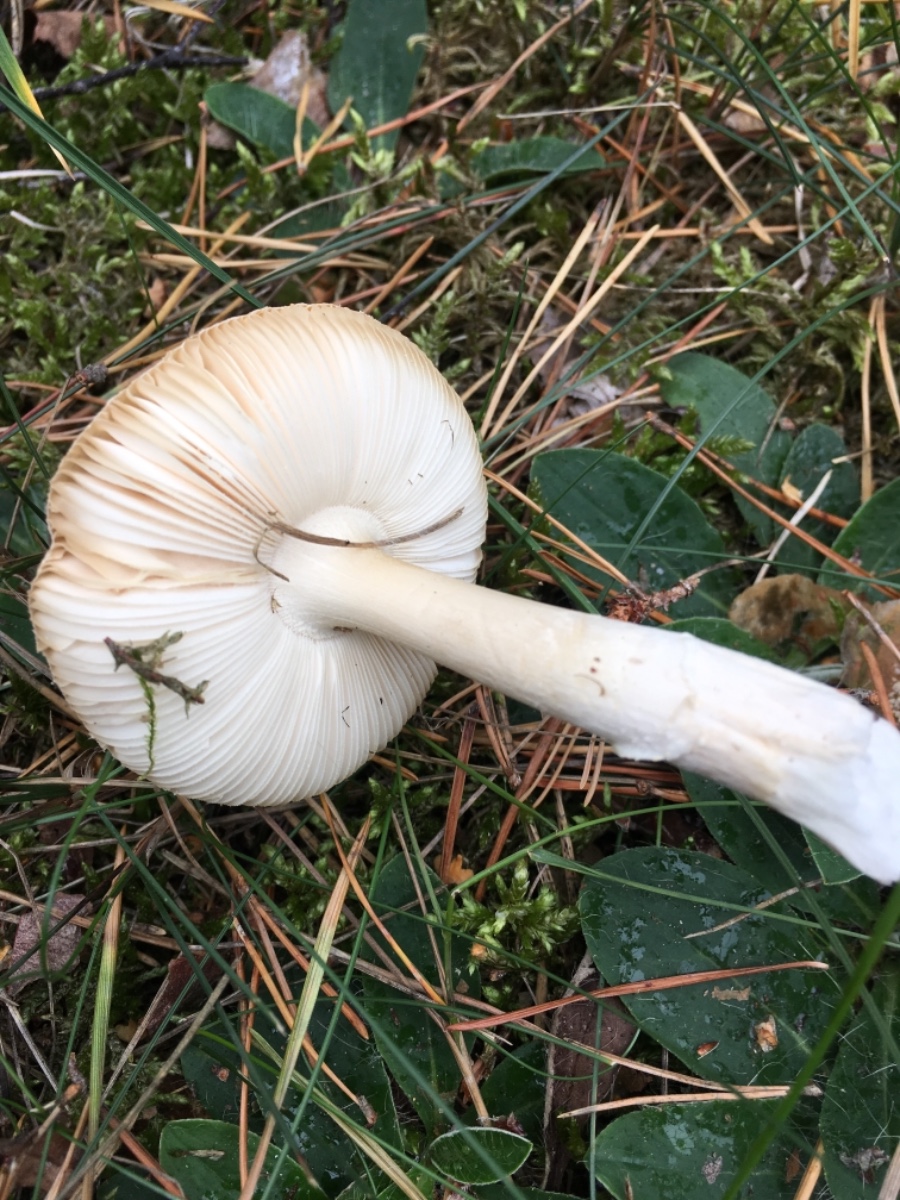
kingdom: Fungi
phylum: Basidiomycota
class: Agaricomycetes
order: Agaricales
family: Amanitaceae
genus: Amanita
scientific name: Amanita
